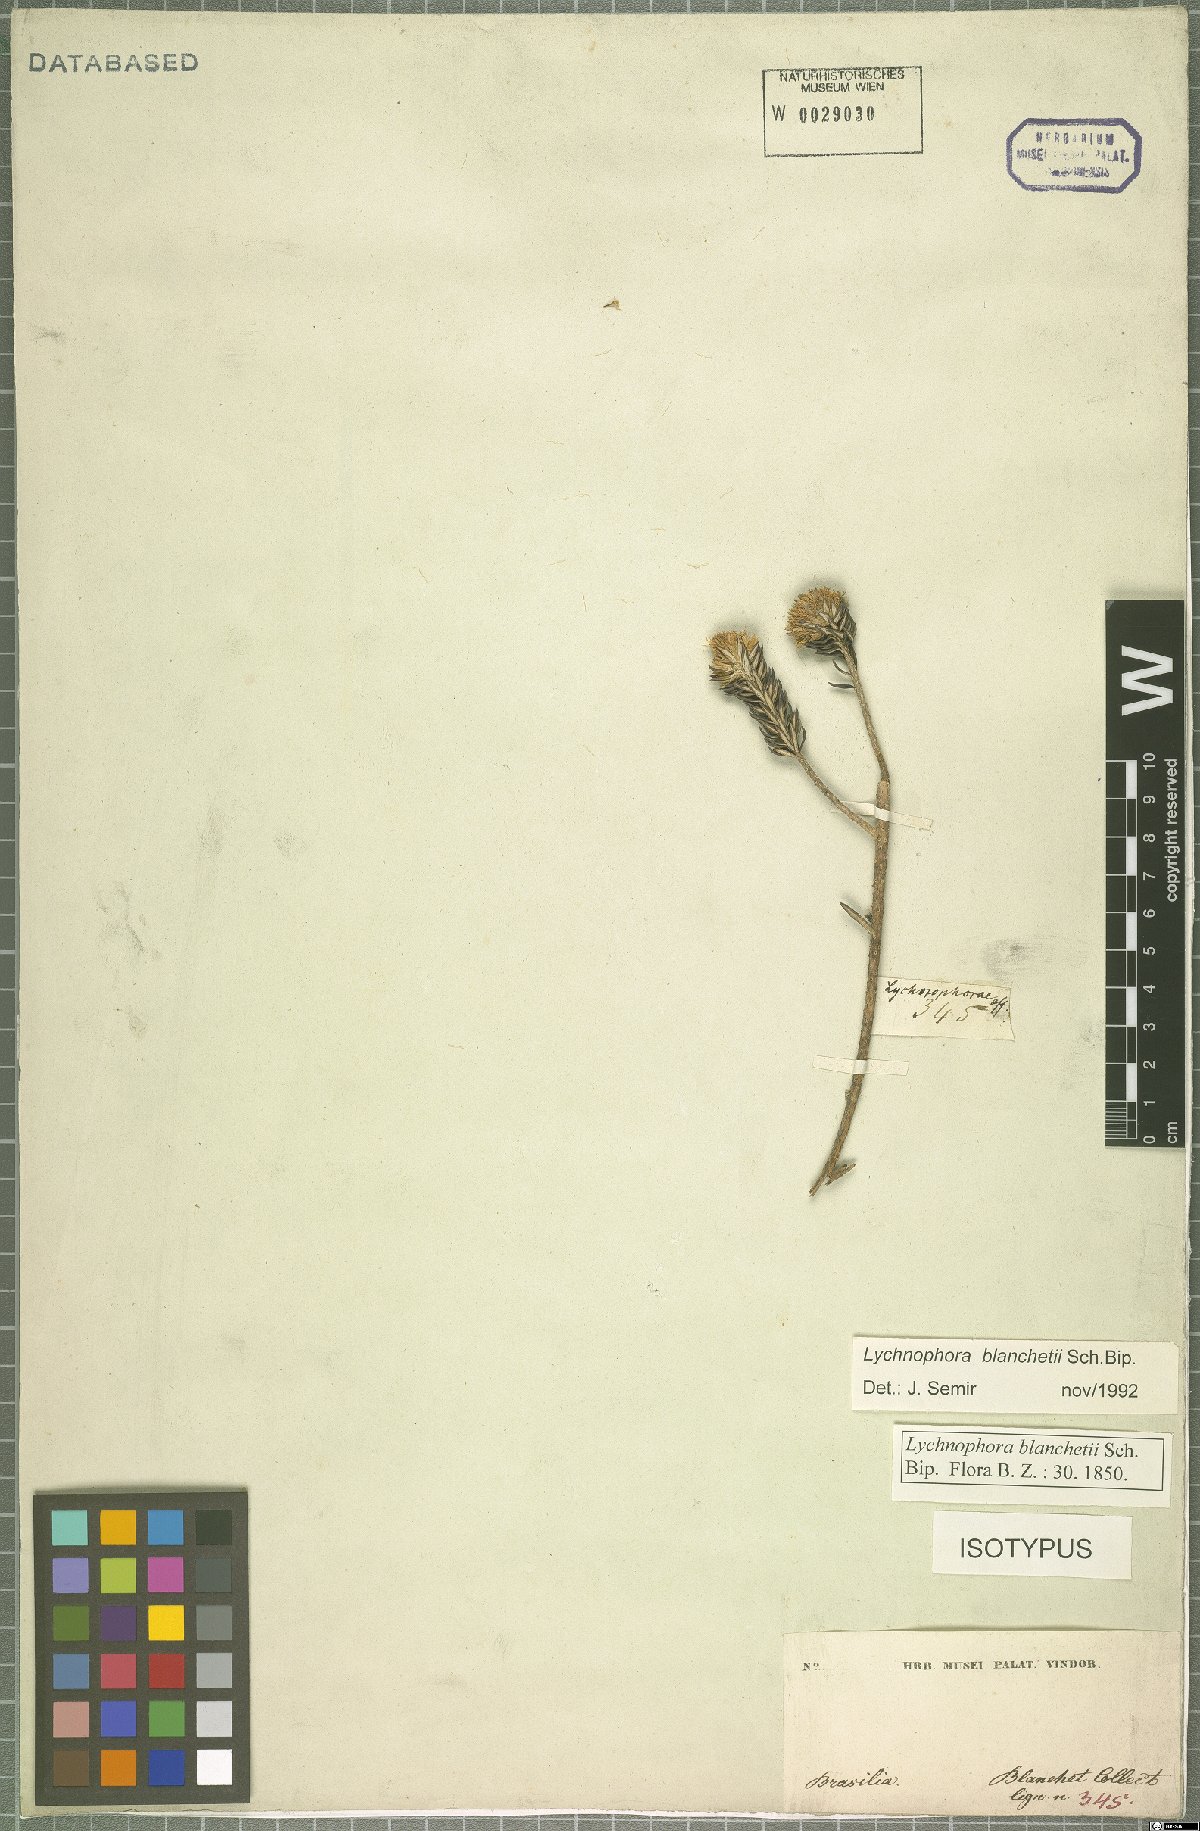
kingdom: Plantae
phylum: Tracheophyta
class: Magnoliopsida
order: Asterales
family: Asteraceae
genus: Lychnophorella
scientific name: Lychnophorella blanchetii
